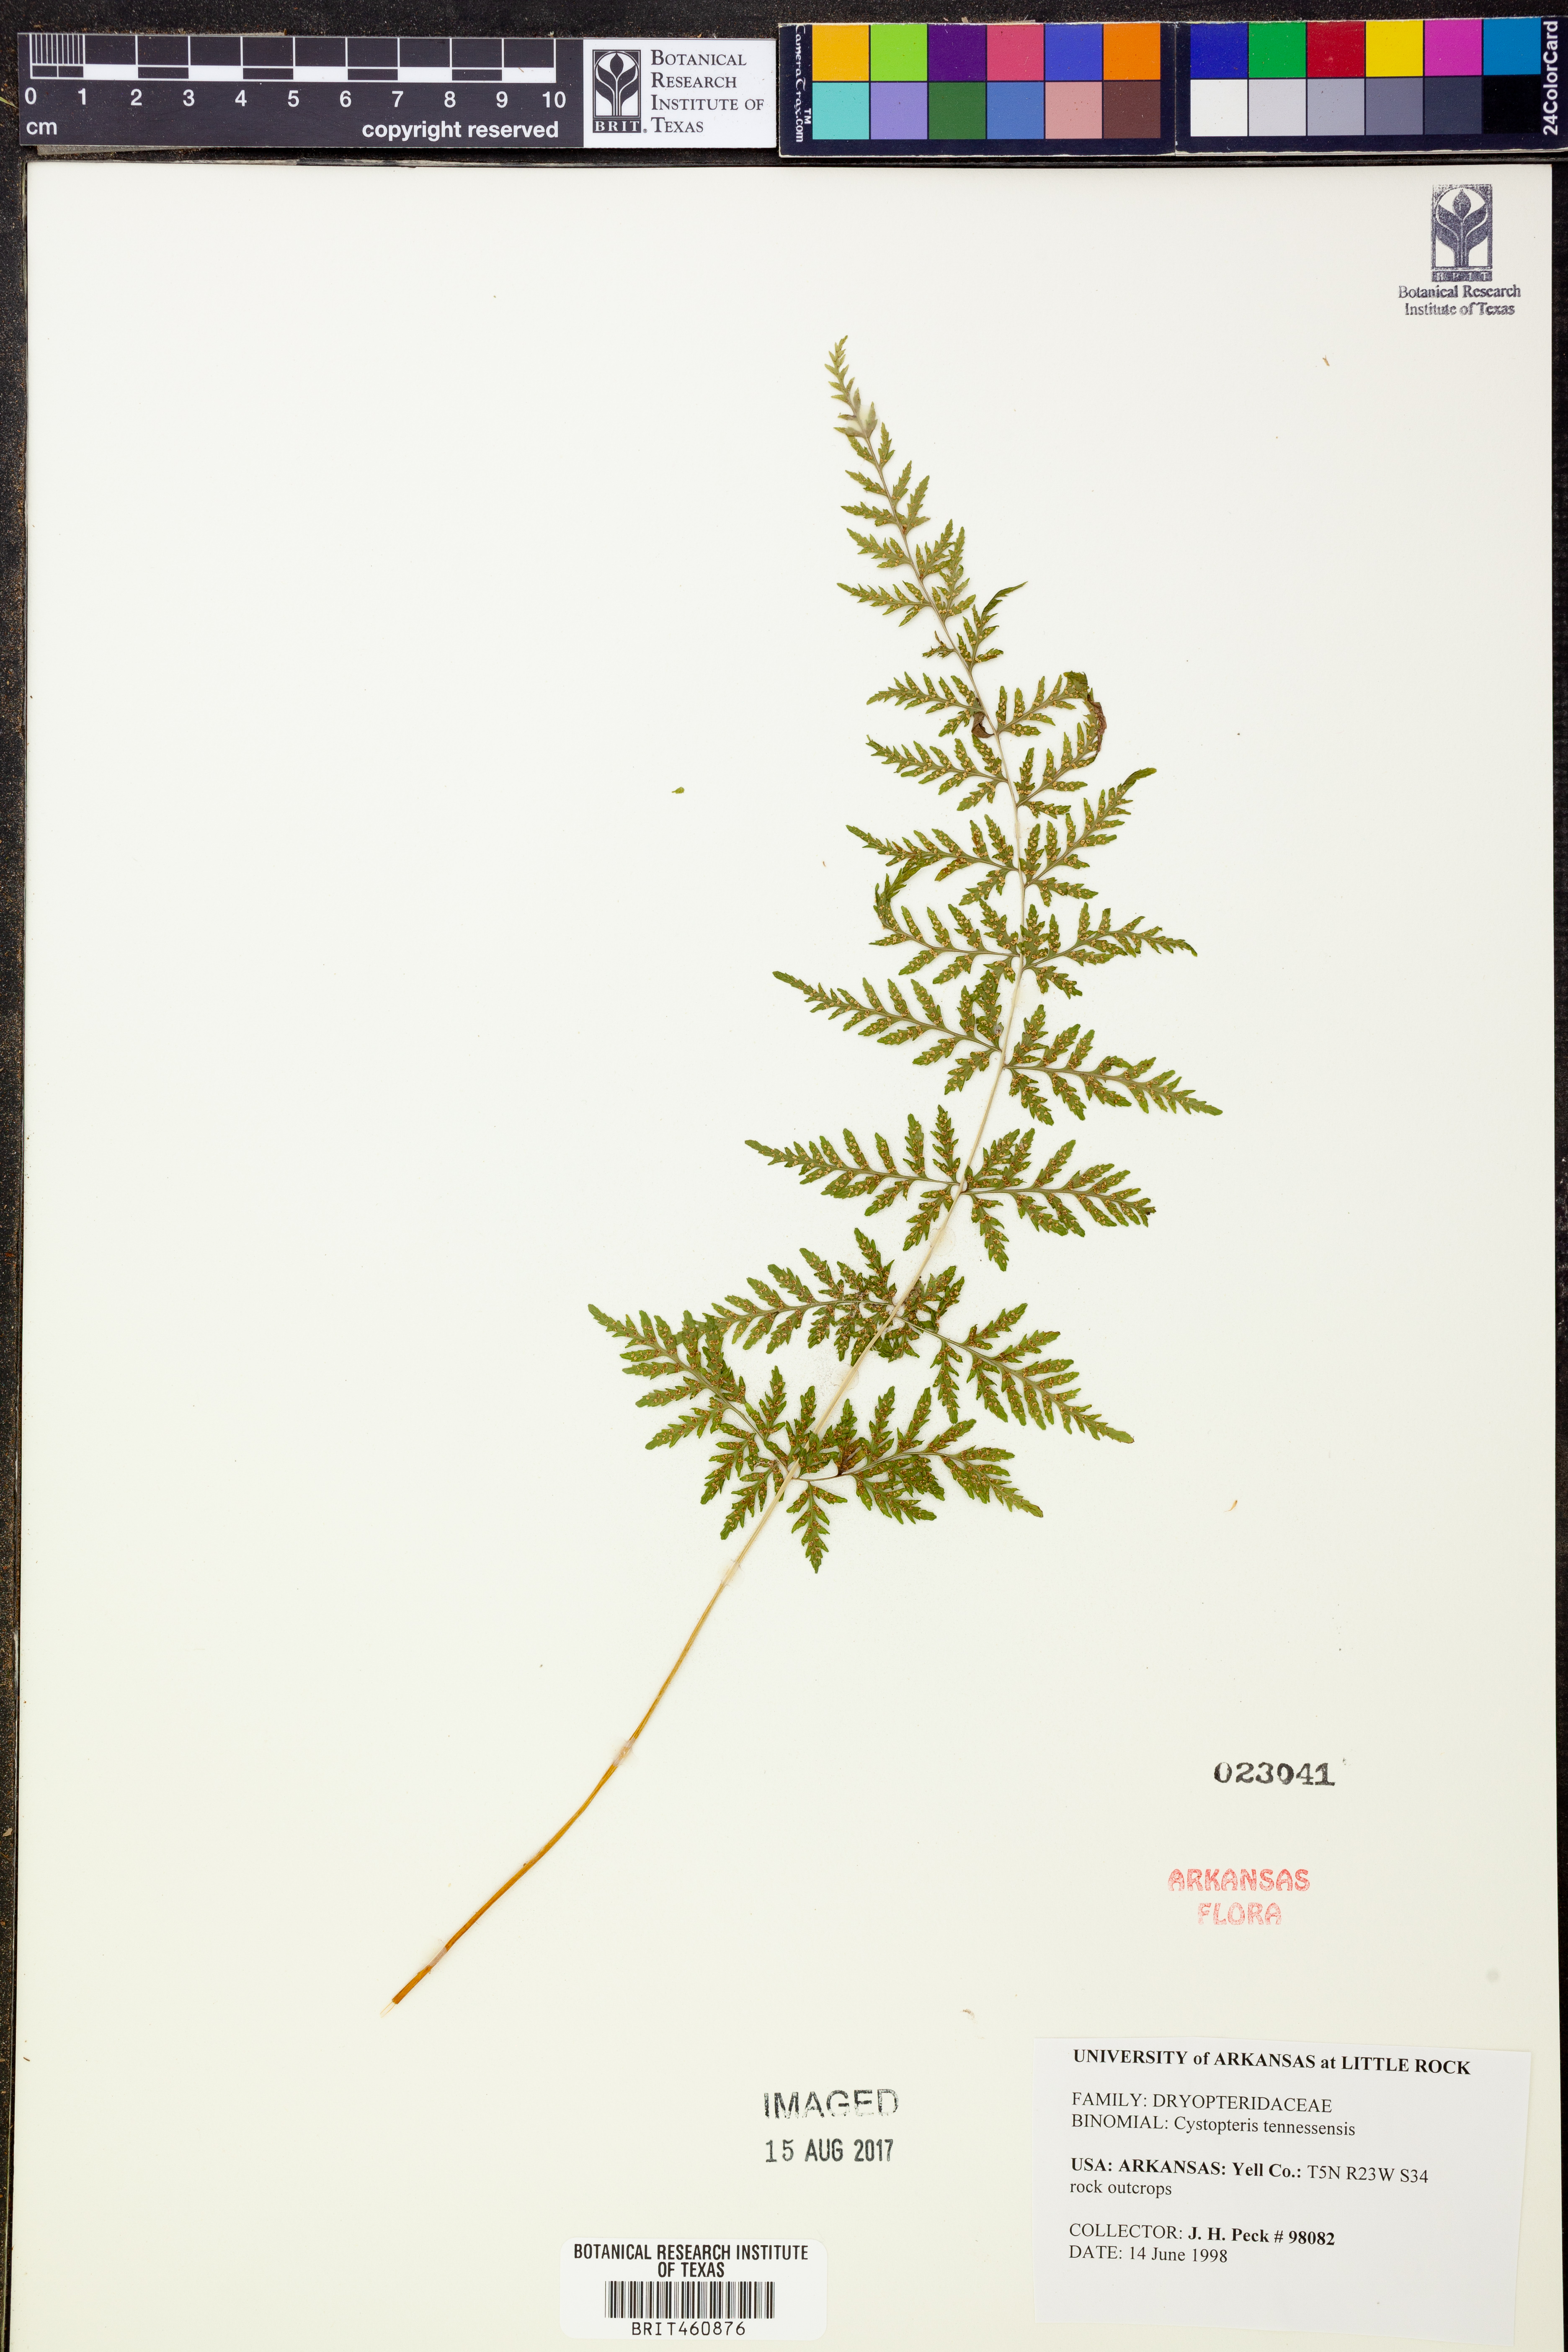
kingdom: Plantae
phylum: Tracheophyta
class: Polypodiopsida
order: Polypodiales
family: Cystopteridaceae
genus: Cystopteris
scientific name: Cystopteris tennesseensis
